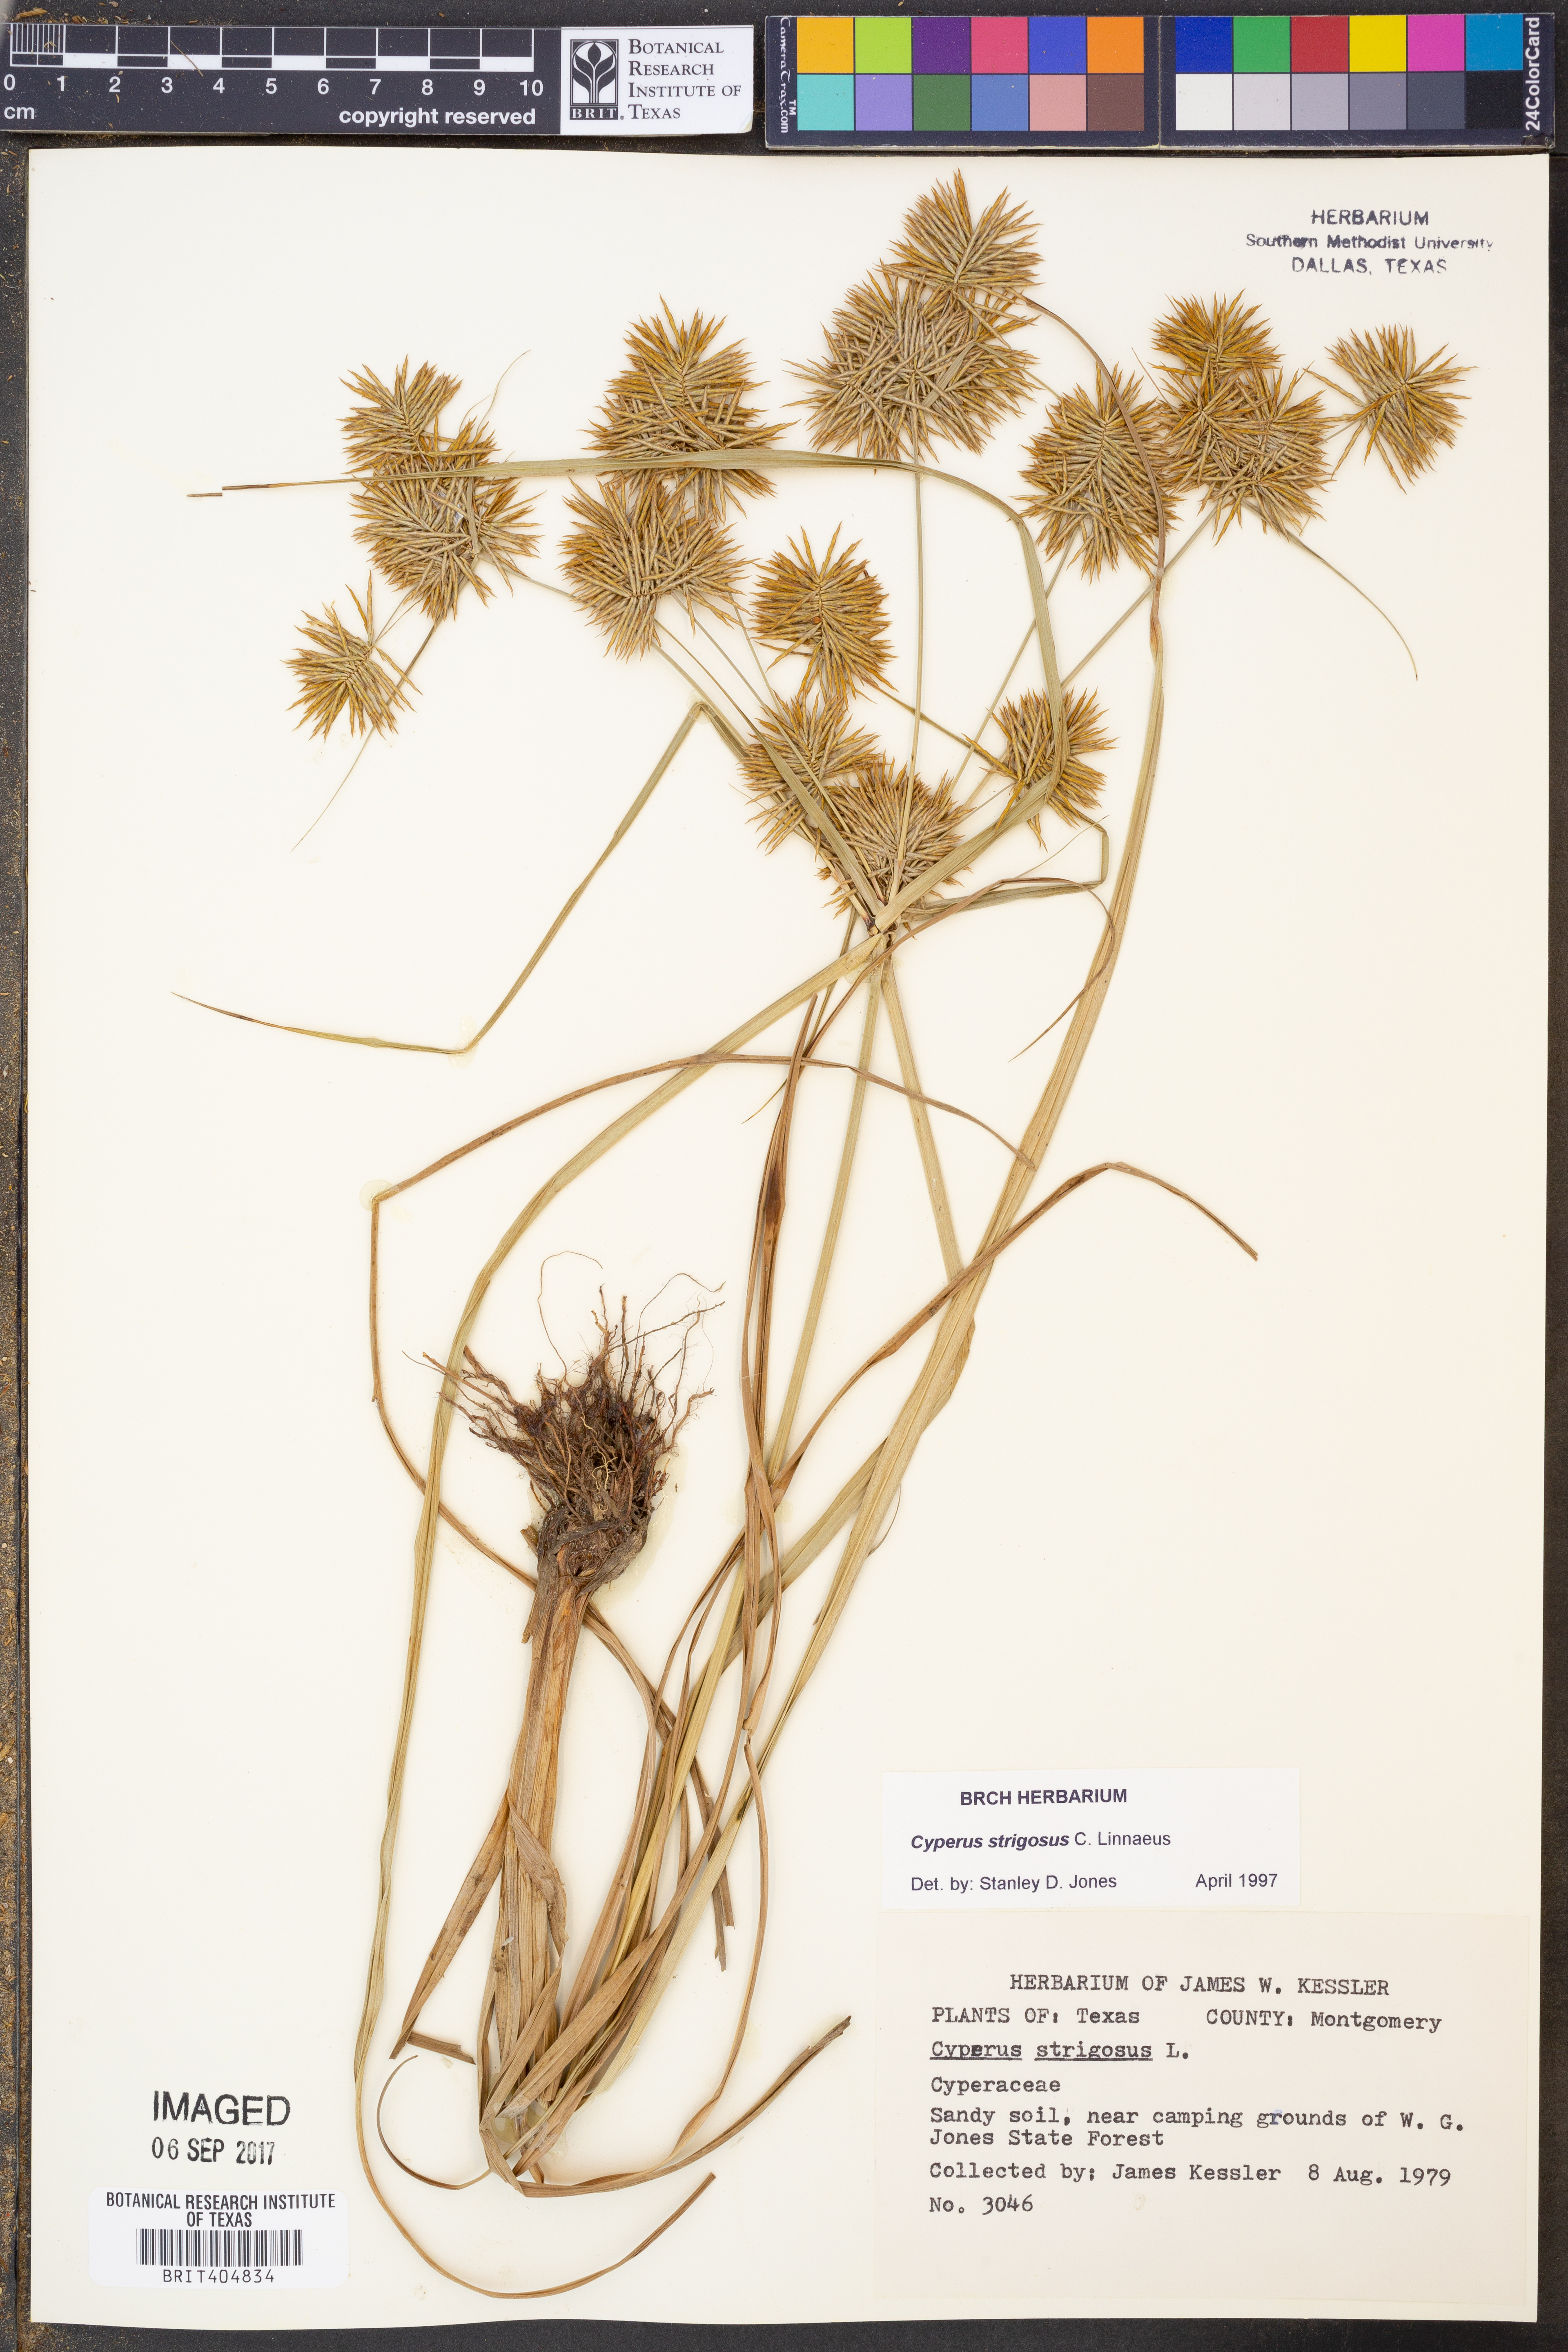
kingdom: Plantae
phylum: Tracheophyta
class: Liliopsida
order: Poales
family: Cyperaceae
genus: Cyperus
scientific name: Cyperus strigosus
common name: False nutsedge
